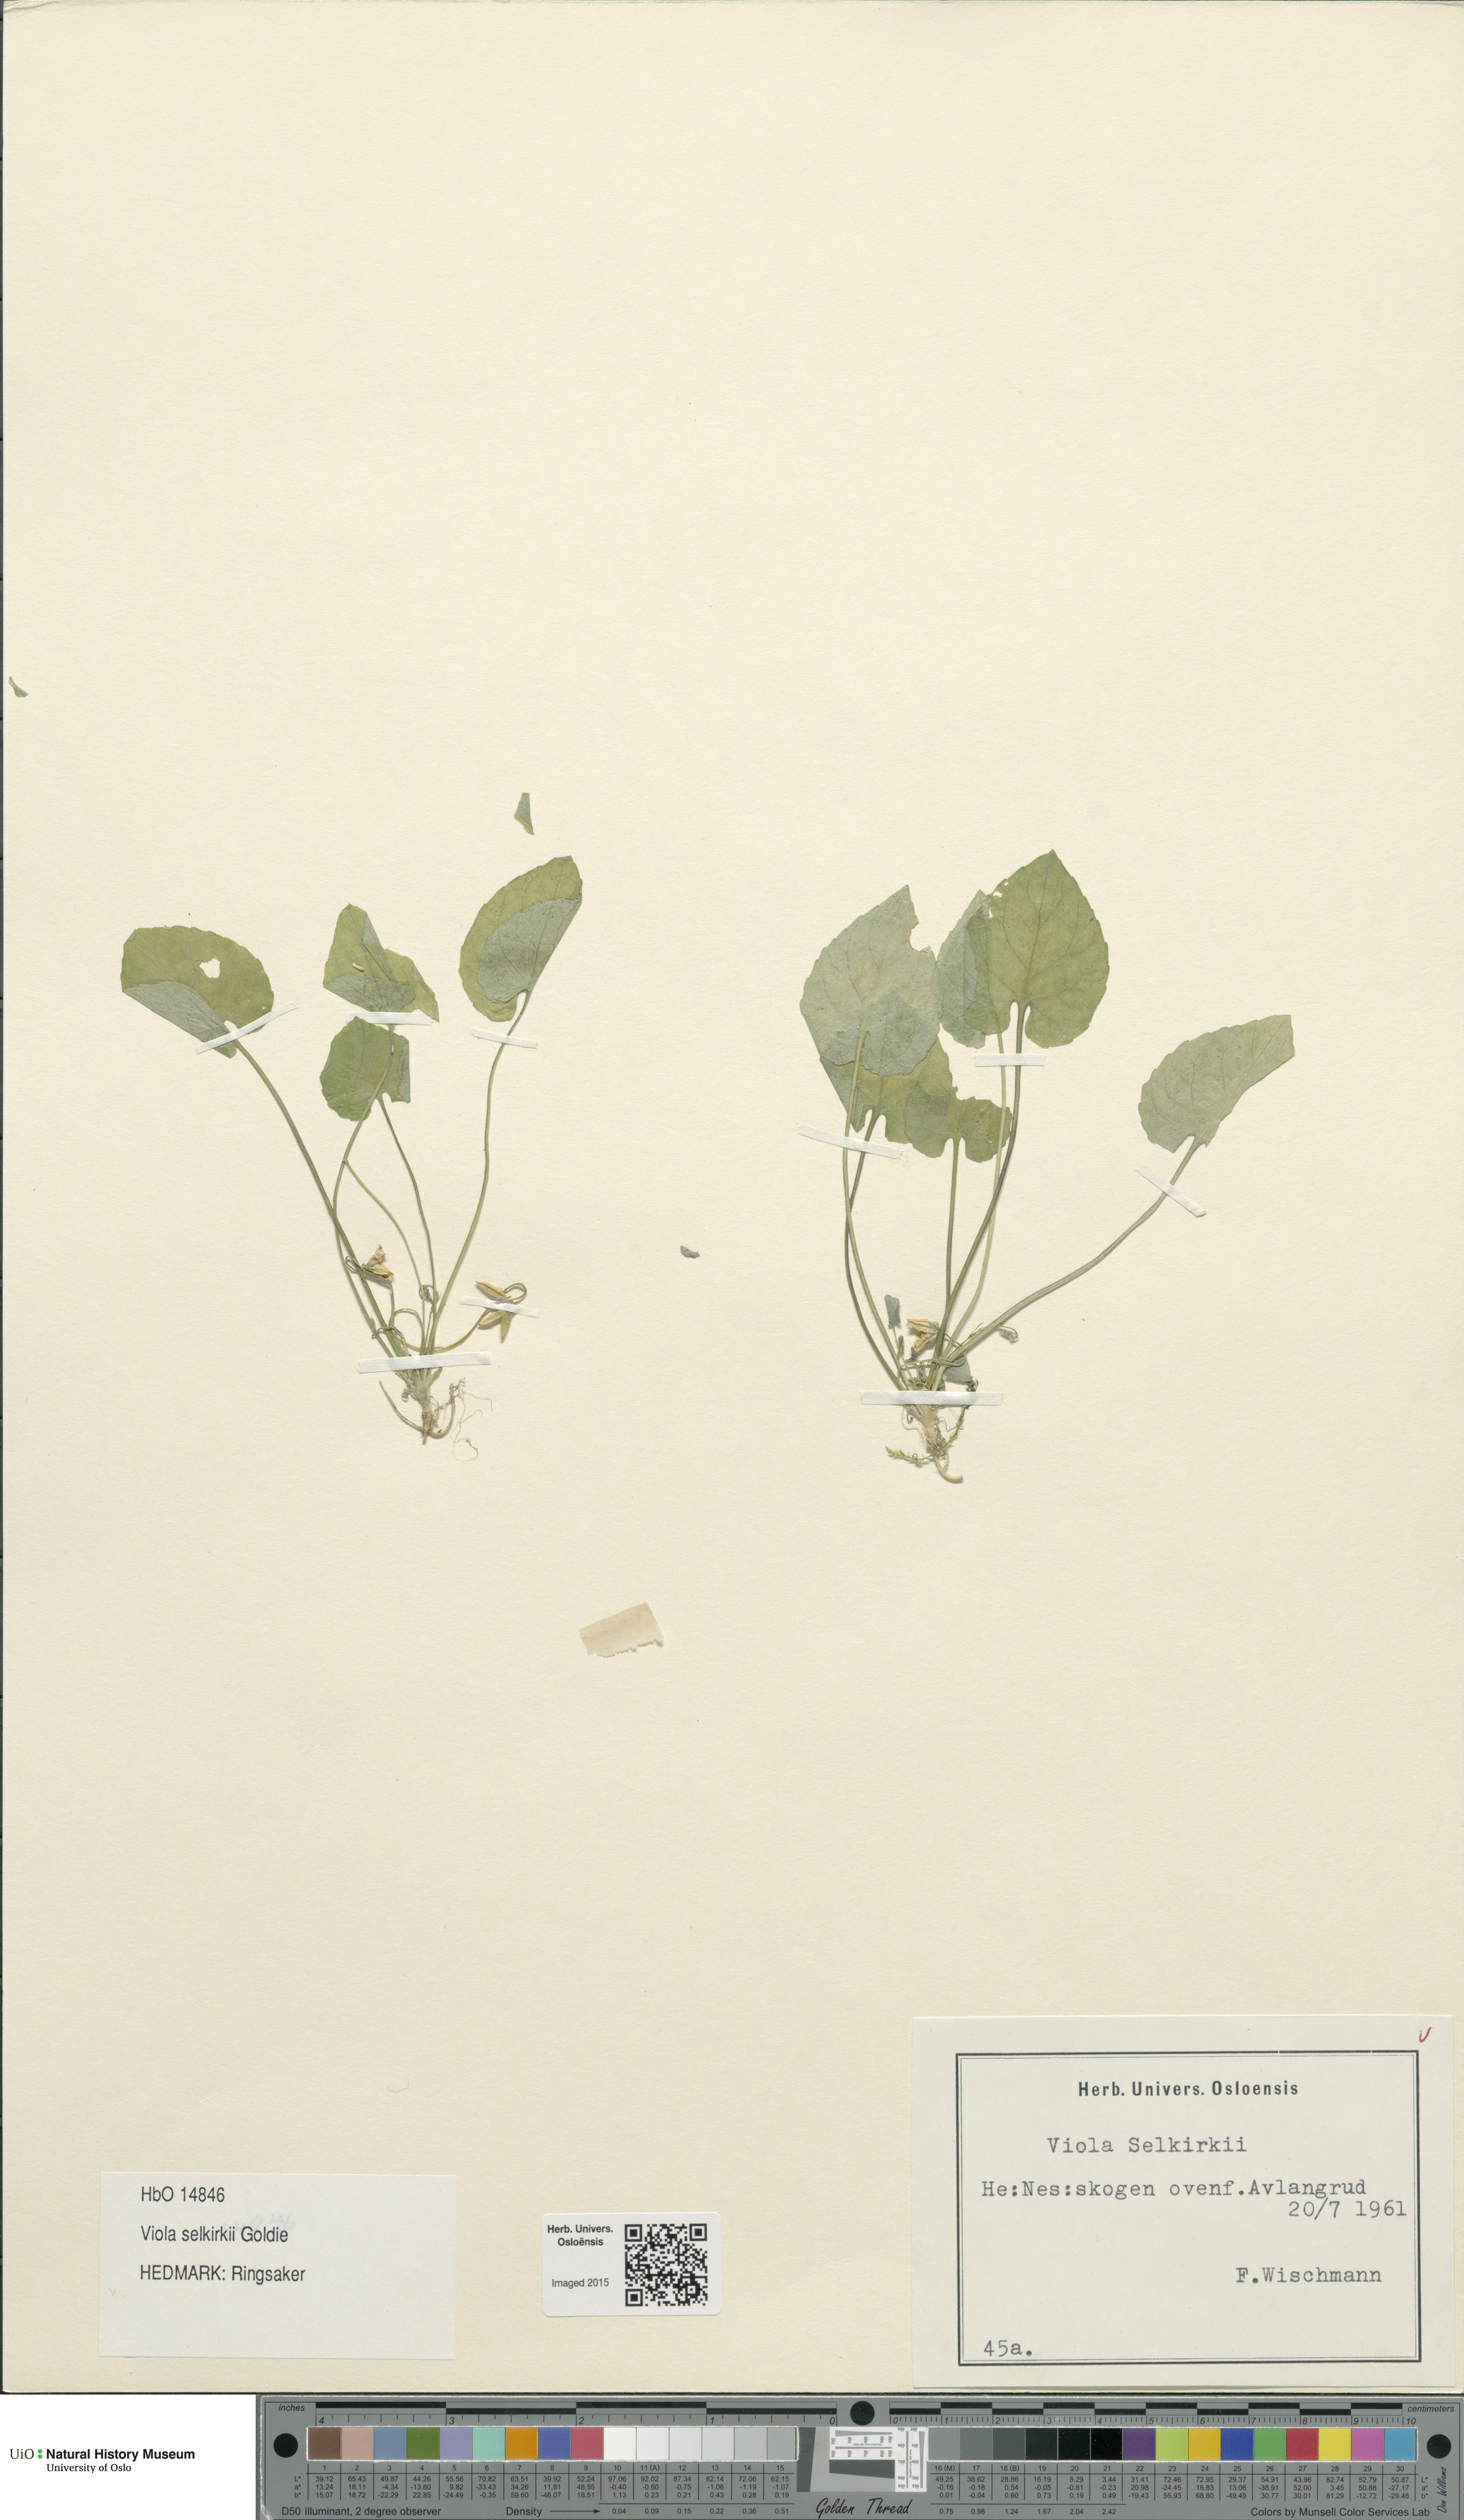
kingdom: Plantae
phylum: Tracheophyta
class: Magnoliopsida
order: Malpighiales
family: Violaceae
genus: Viola
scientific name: Viola selkirkii
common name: Selkirk's violet
